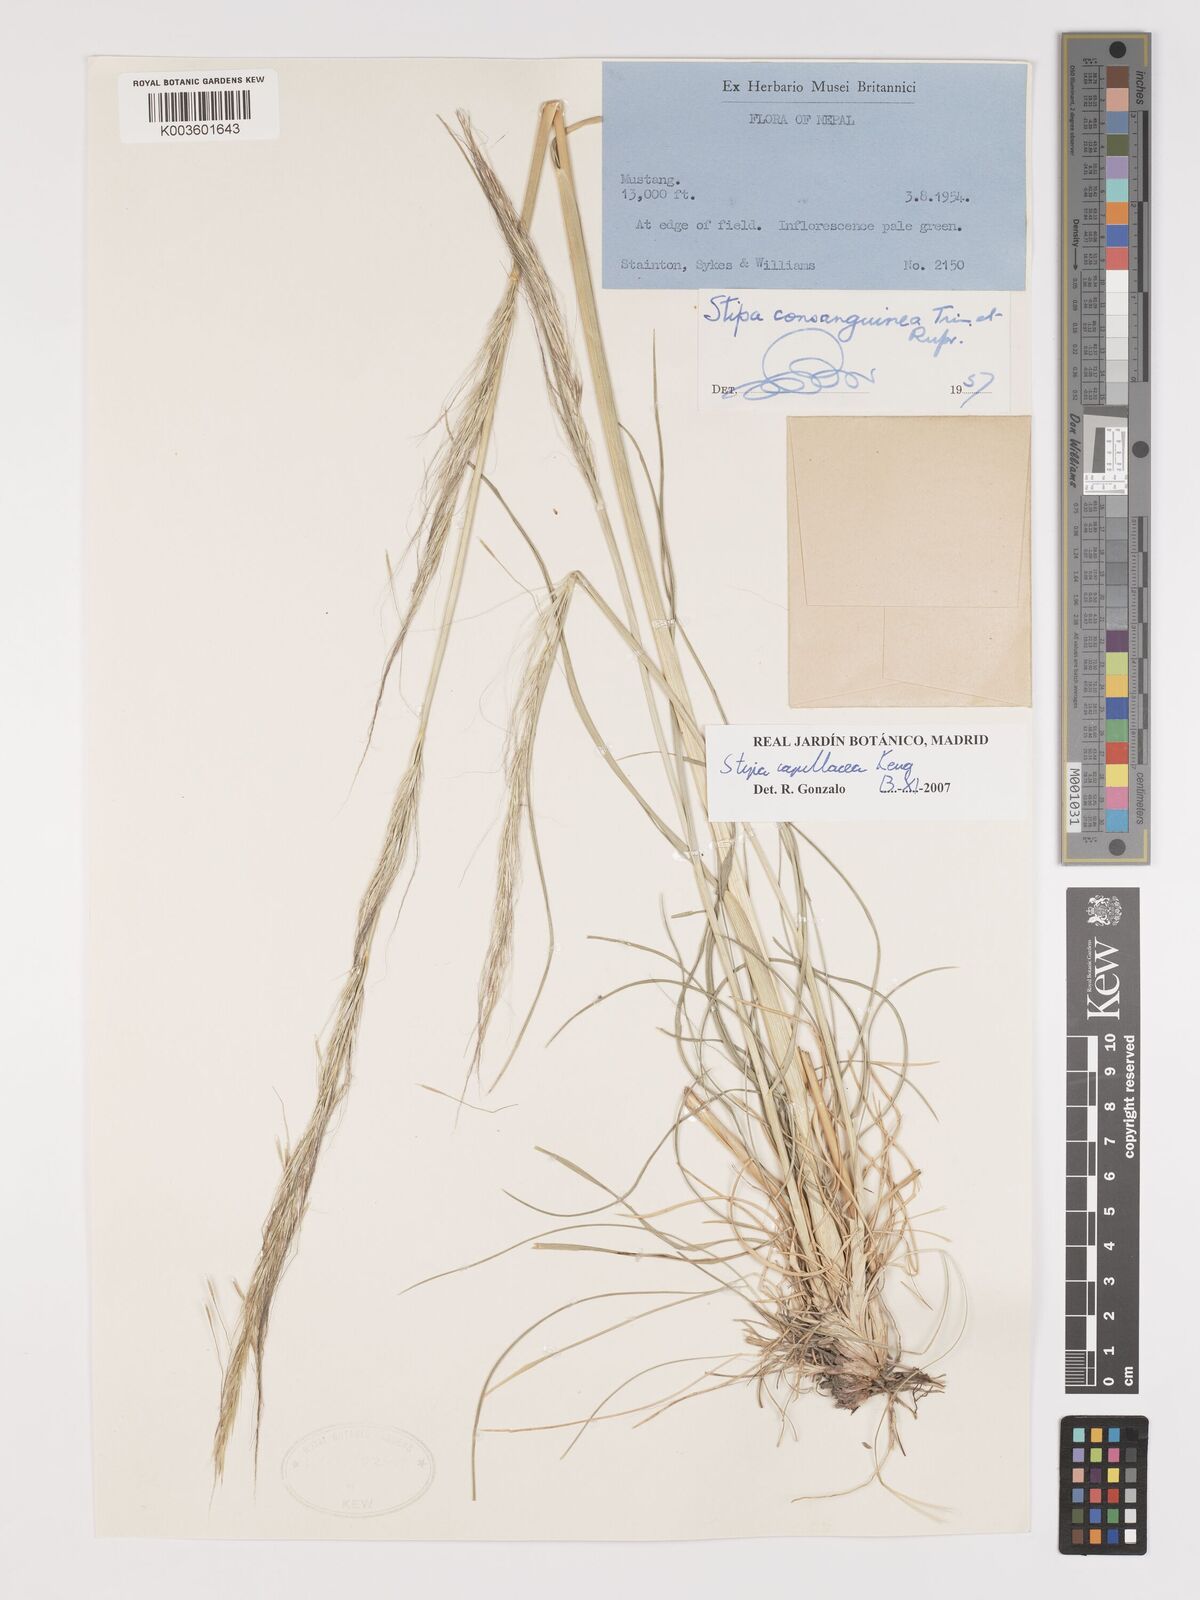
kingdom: Plantae
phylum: Tracheophyta
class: Liliopsida
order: Poales
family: Poaceae
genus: Stipa
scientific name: Stipa capillacea
